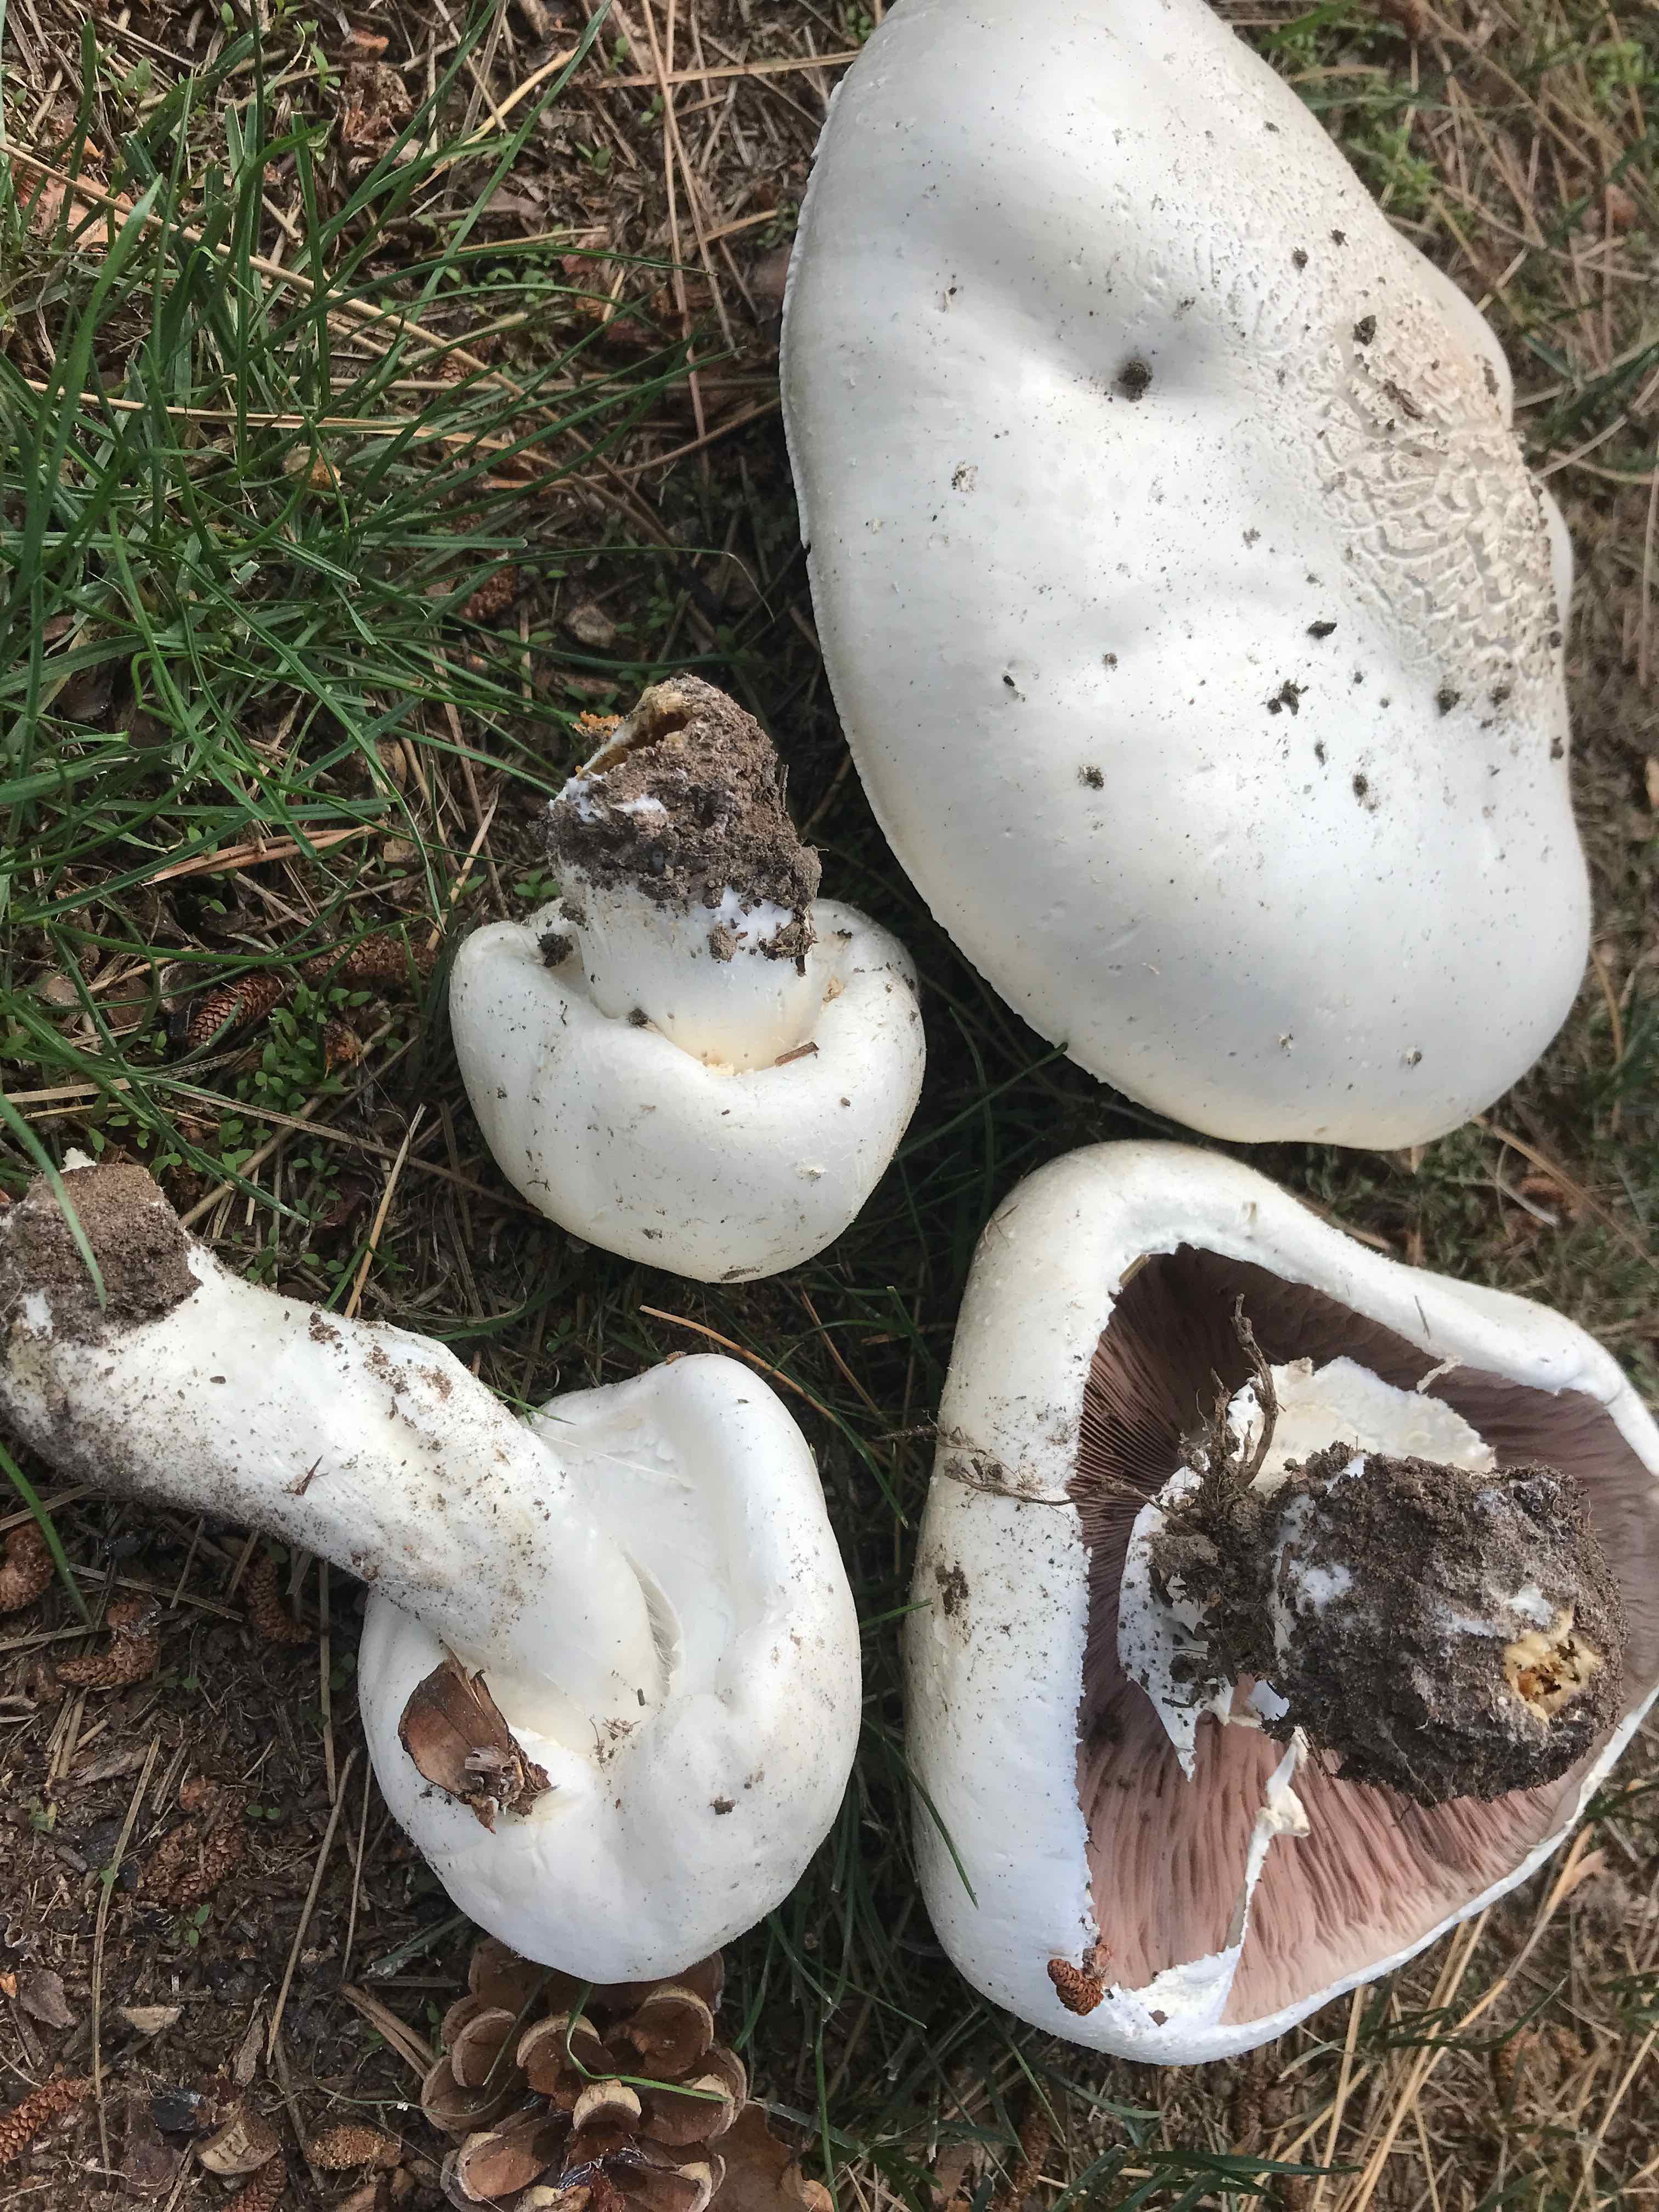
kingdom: Fungi
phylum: Basidiomycota
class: Agaricomycetes
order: Agaricales
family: Agaricaceae
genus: Agaricus
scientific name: Agaricus arvensis
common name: ager-champignon
